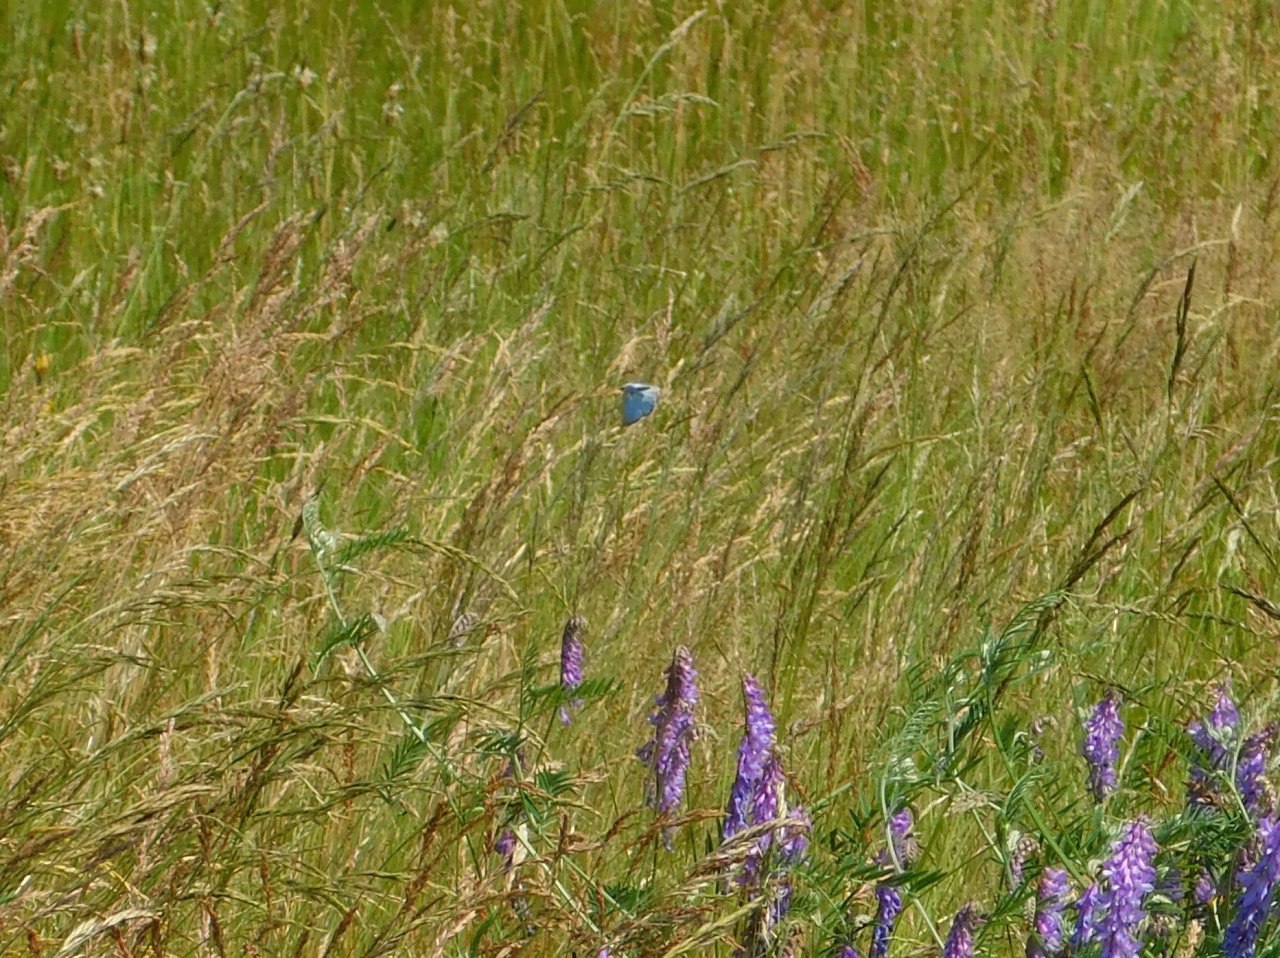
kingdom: Animalia
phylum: Arthropoda
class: Insecta
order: Lepidoptera
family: Lycaenidae
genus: Glaucopsyche
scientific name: Glaucopsyche lygdamus
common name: Silvery Blue
